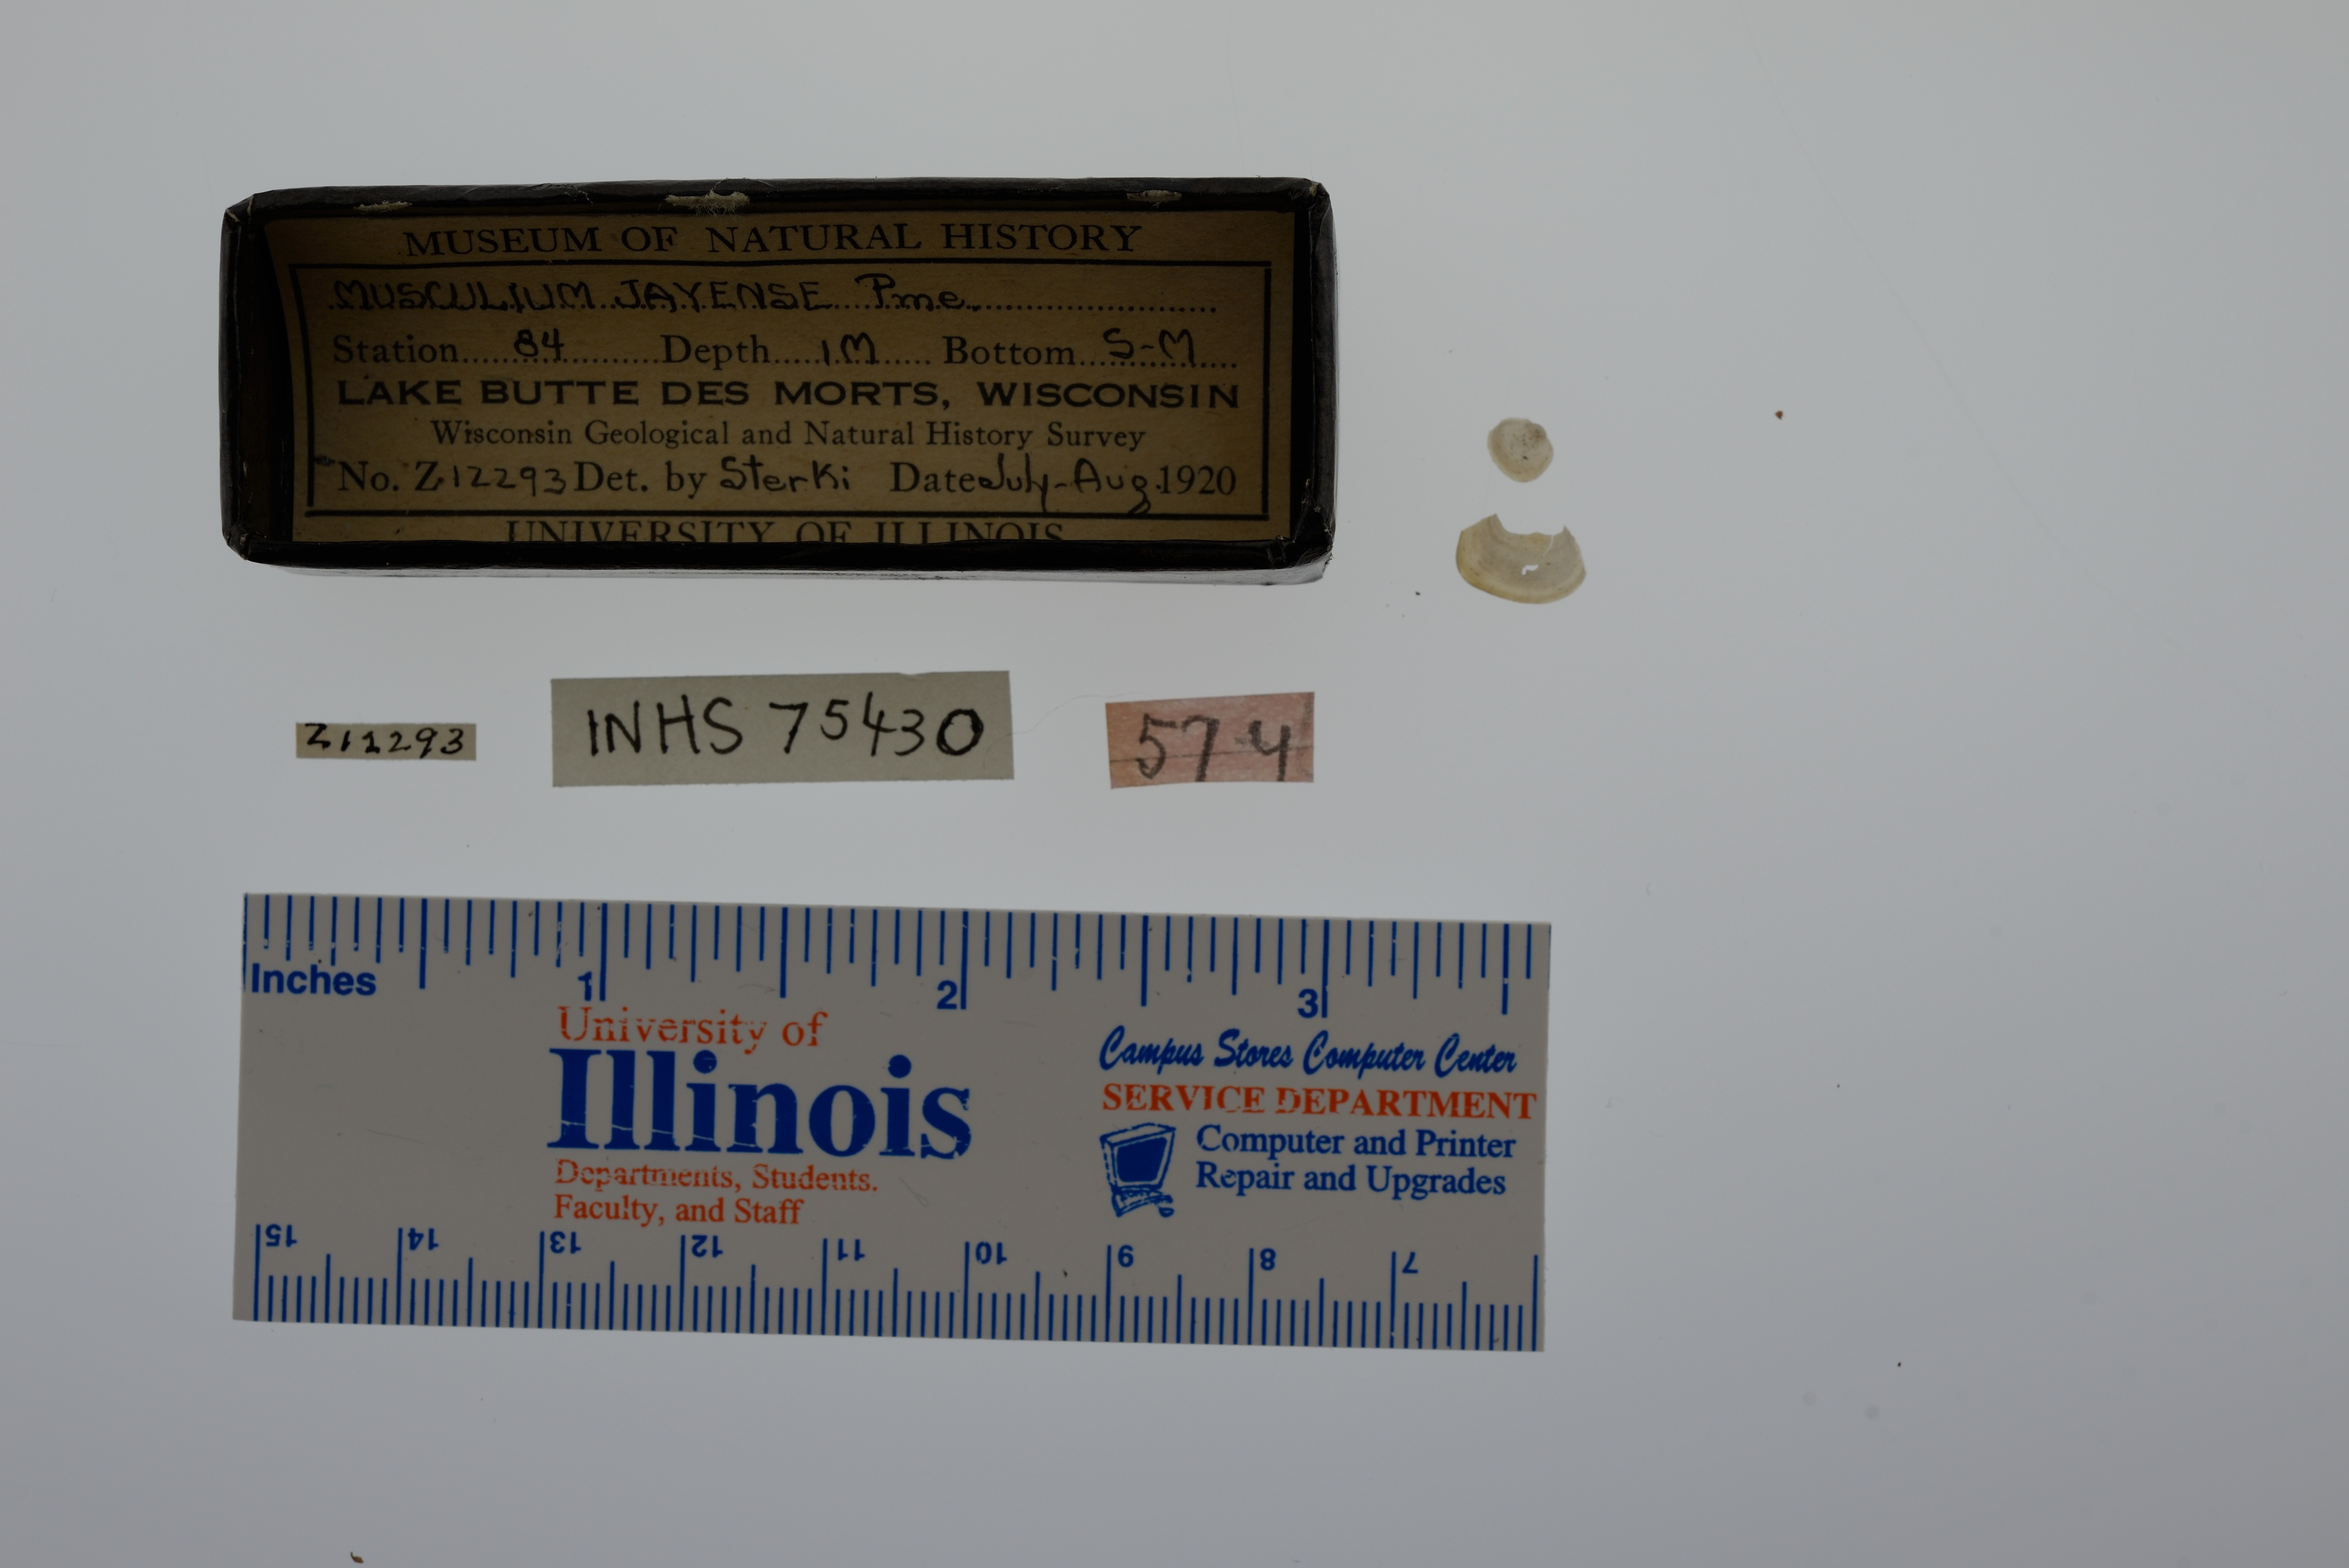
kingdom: Animalia
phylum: Mollusca
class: Bivalvia
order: Sphaeriida
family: Sphaeriidae
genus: Musculium
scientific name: Musculium lacustre
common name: Lake fingernailclam
